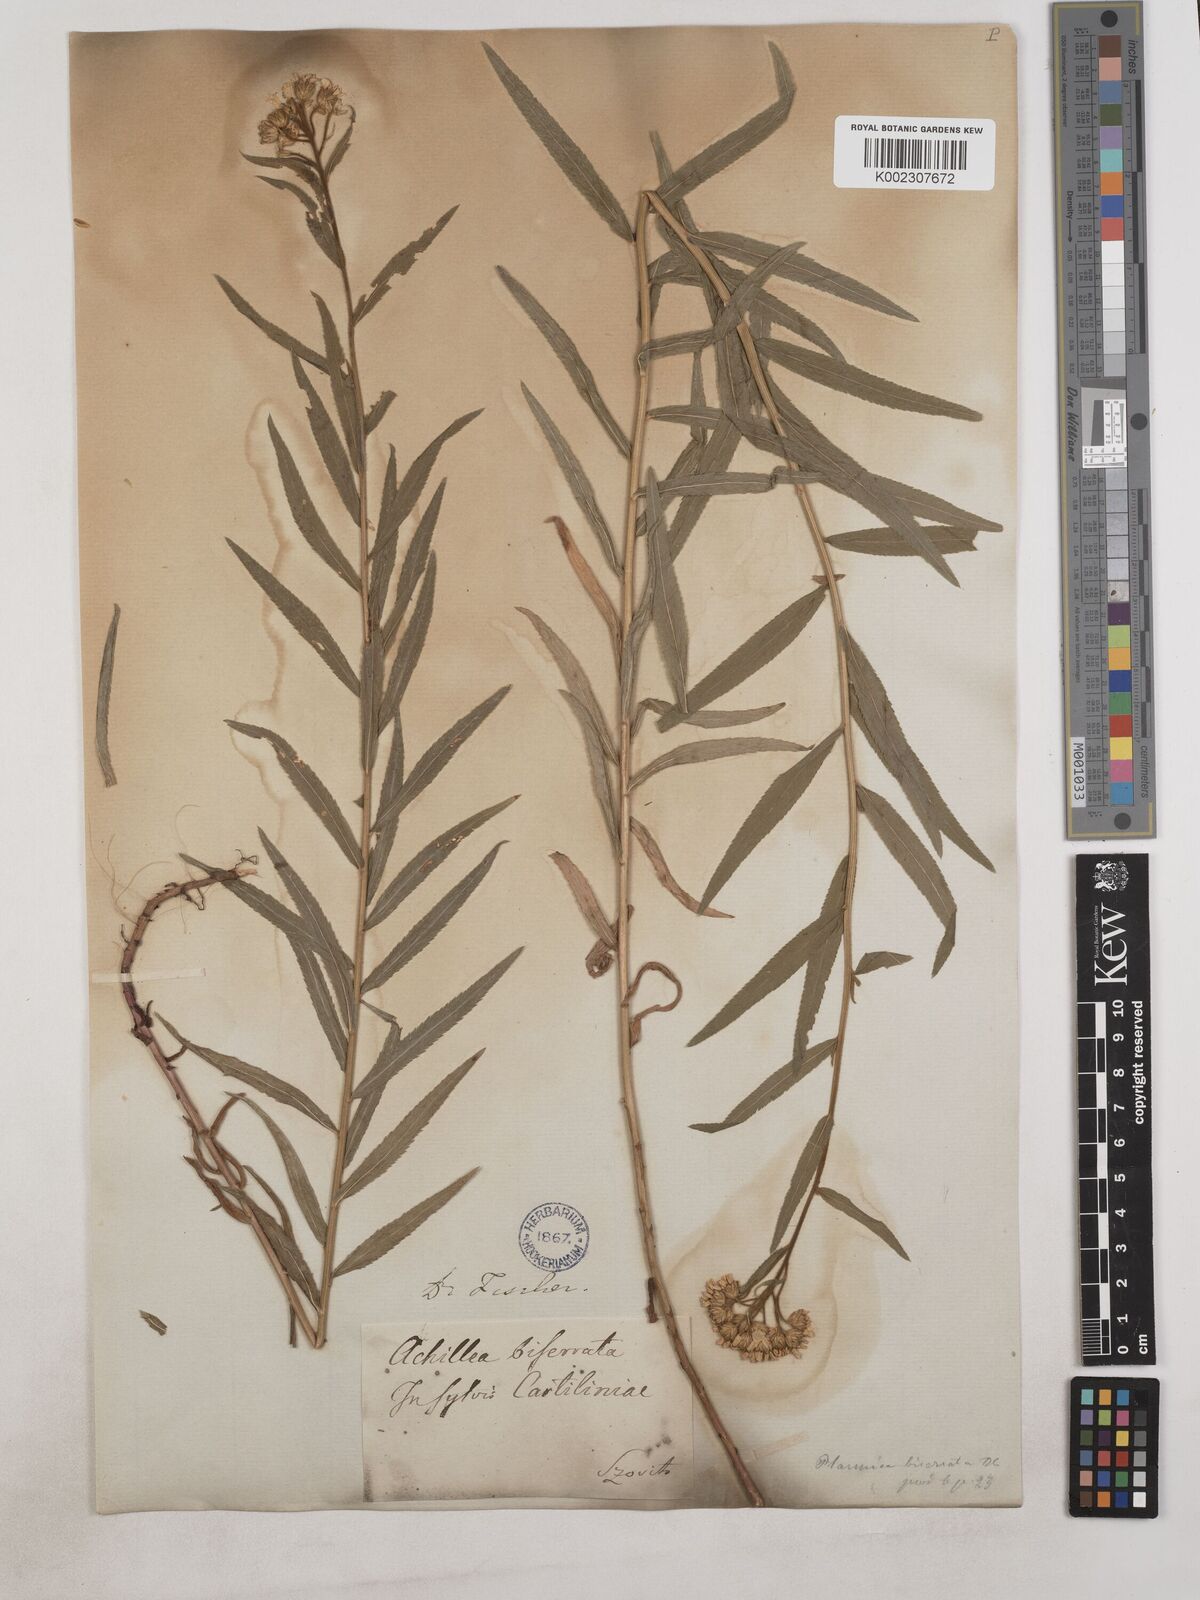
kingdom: Plantae
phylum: Tracheophyta
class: Magnoliopsida
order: Asterales
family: Asteraceae
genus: Achillea
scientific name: Achillea biserrata
